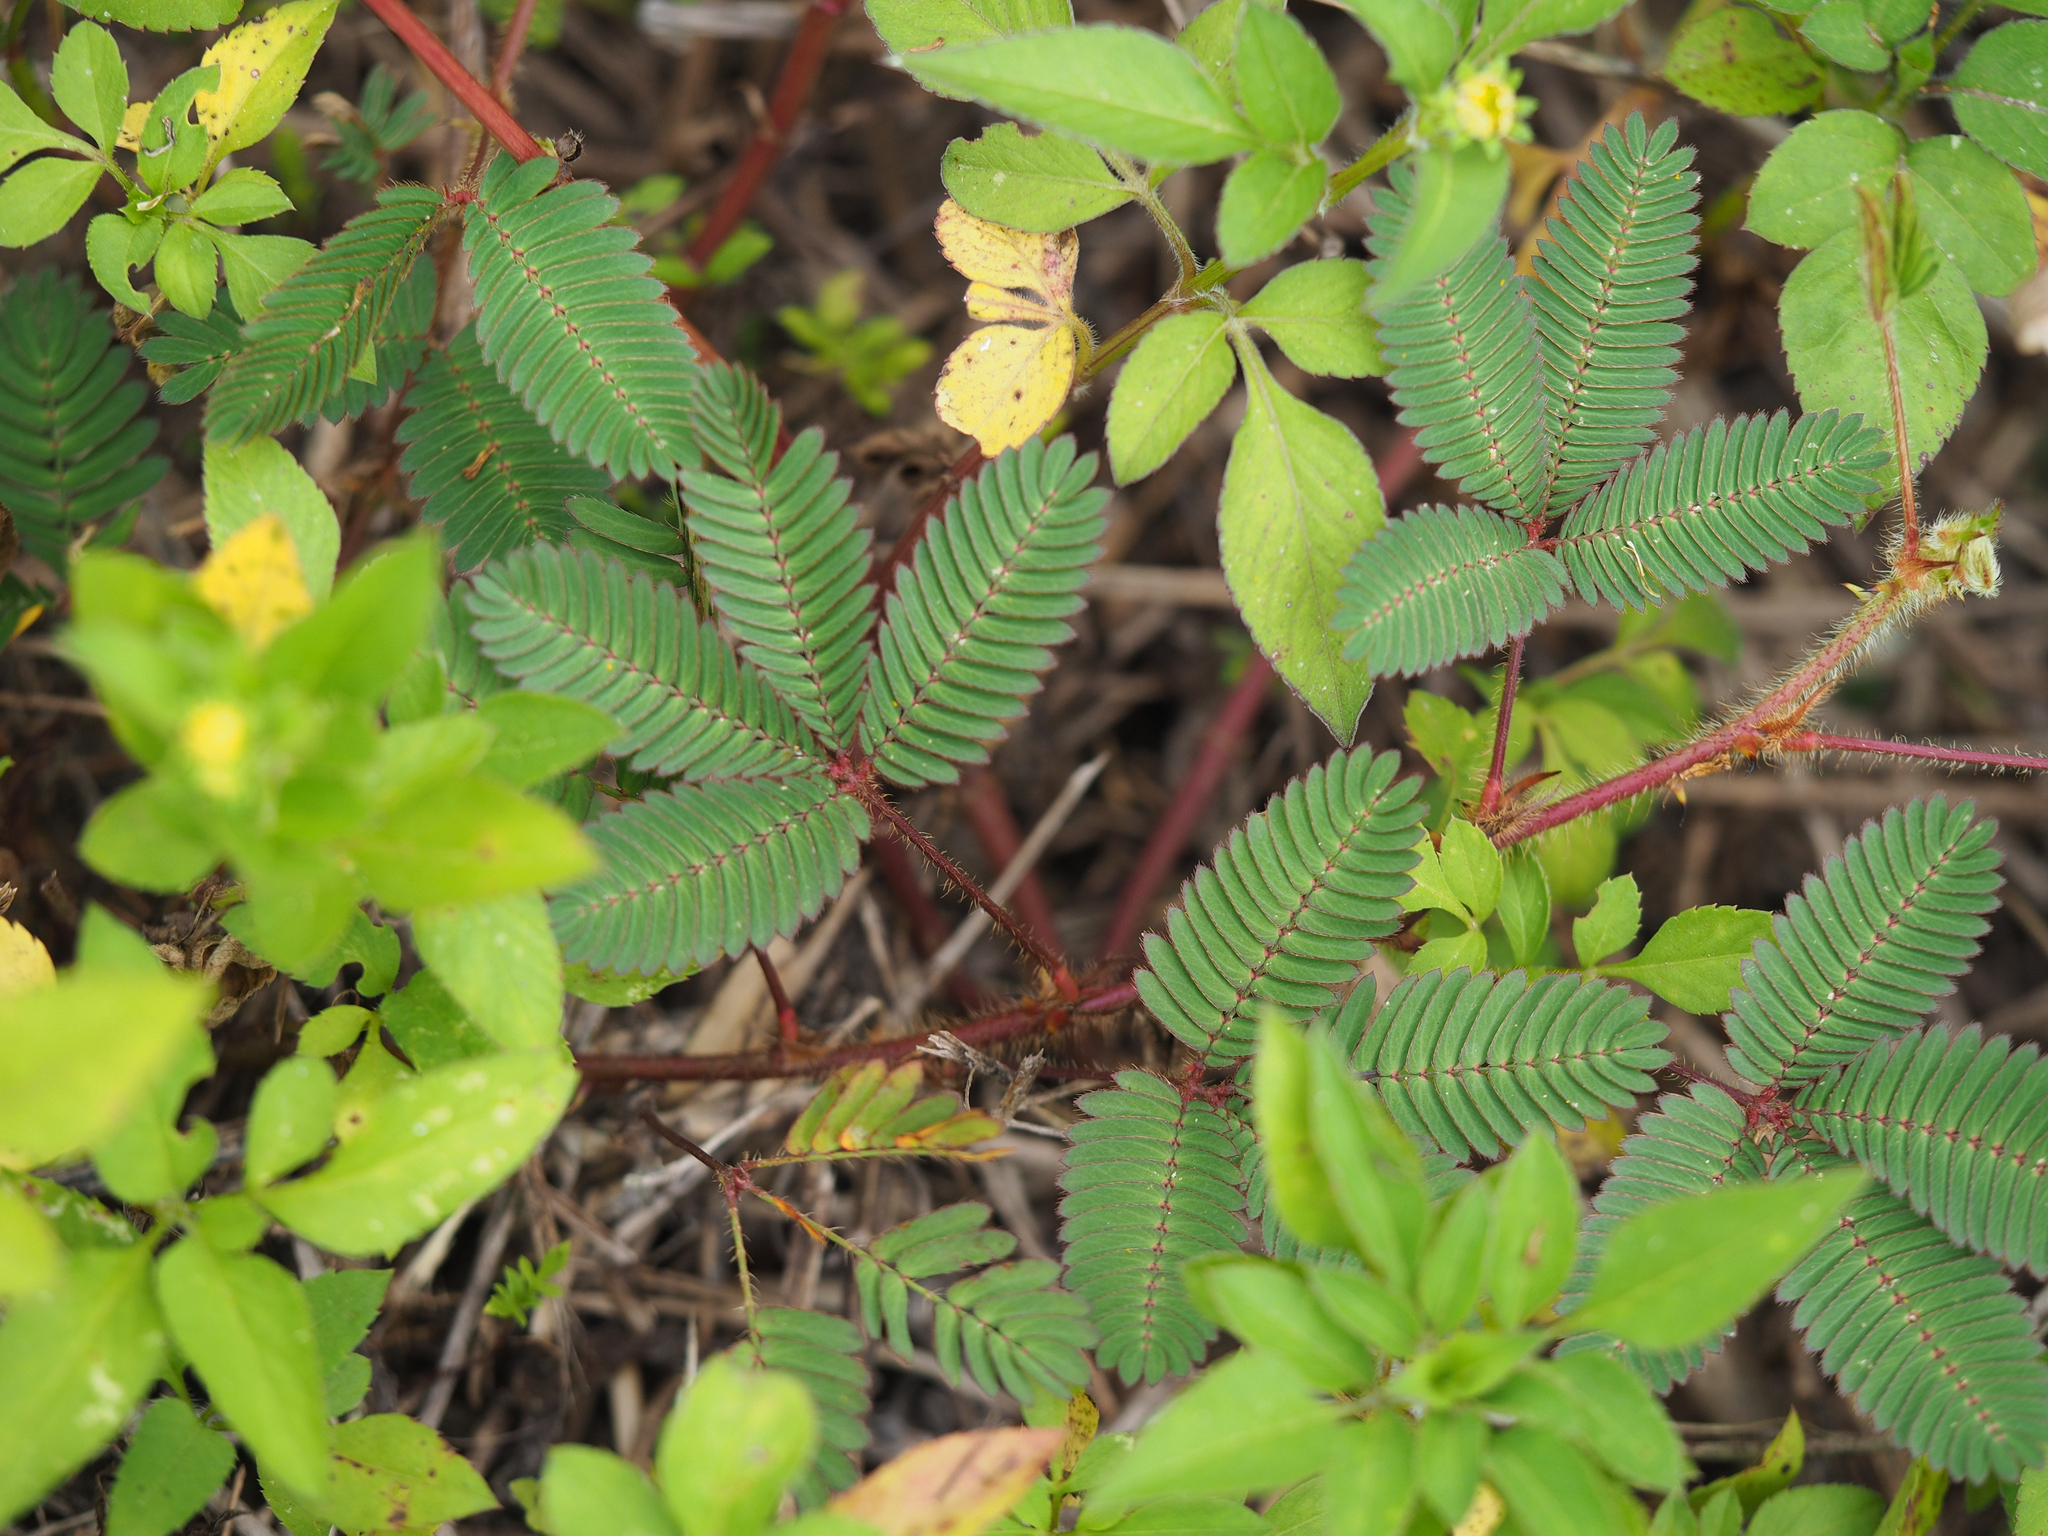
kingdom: Plantae
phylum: Tracheophyta
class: Magnoliopsida
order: Fabales
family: Fabaceae
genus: Mimosa
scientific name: Mimosa pudica
